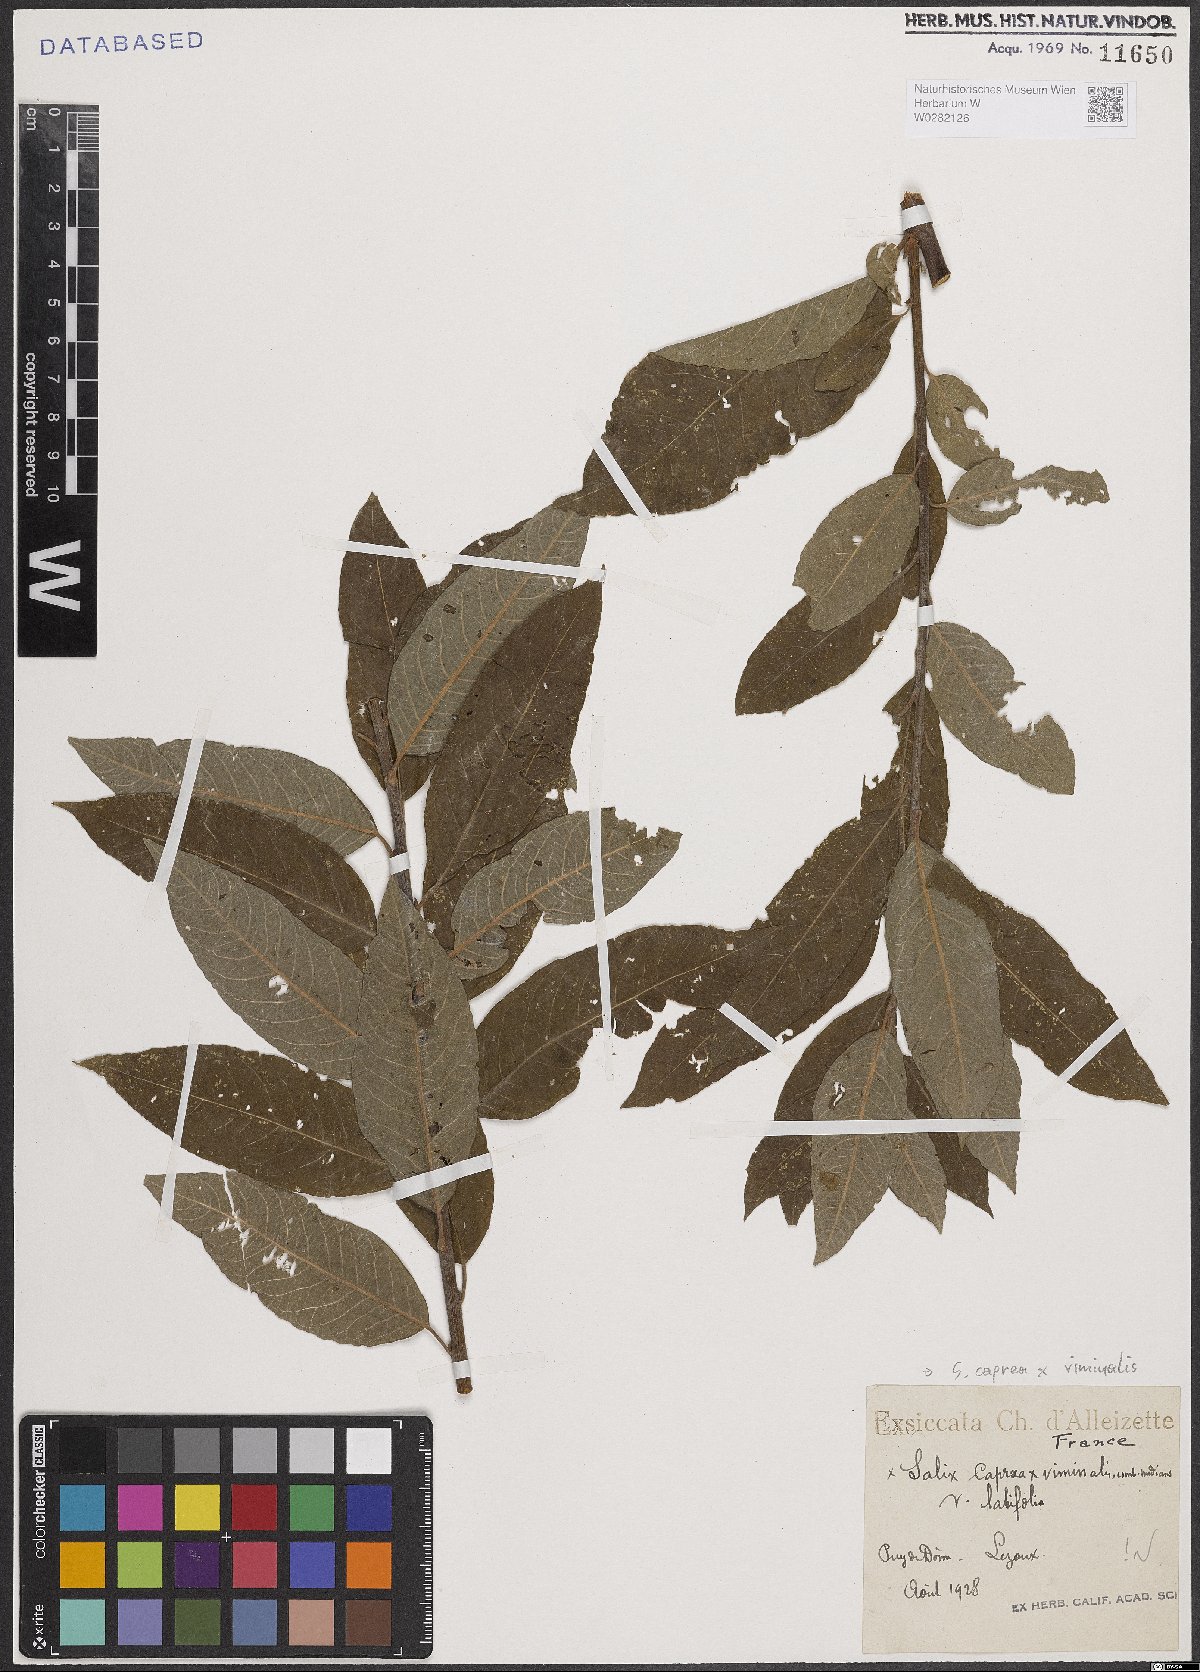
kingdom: Plantae
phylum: Tracheophyta
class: Magnoliopsida
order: Malpighiales
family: Salicaceae
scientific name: Salicaceae
